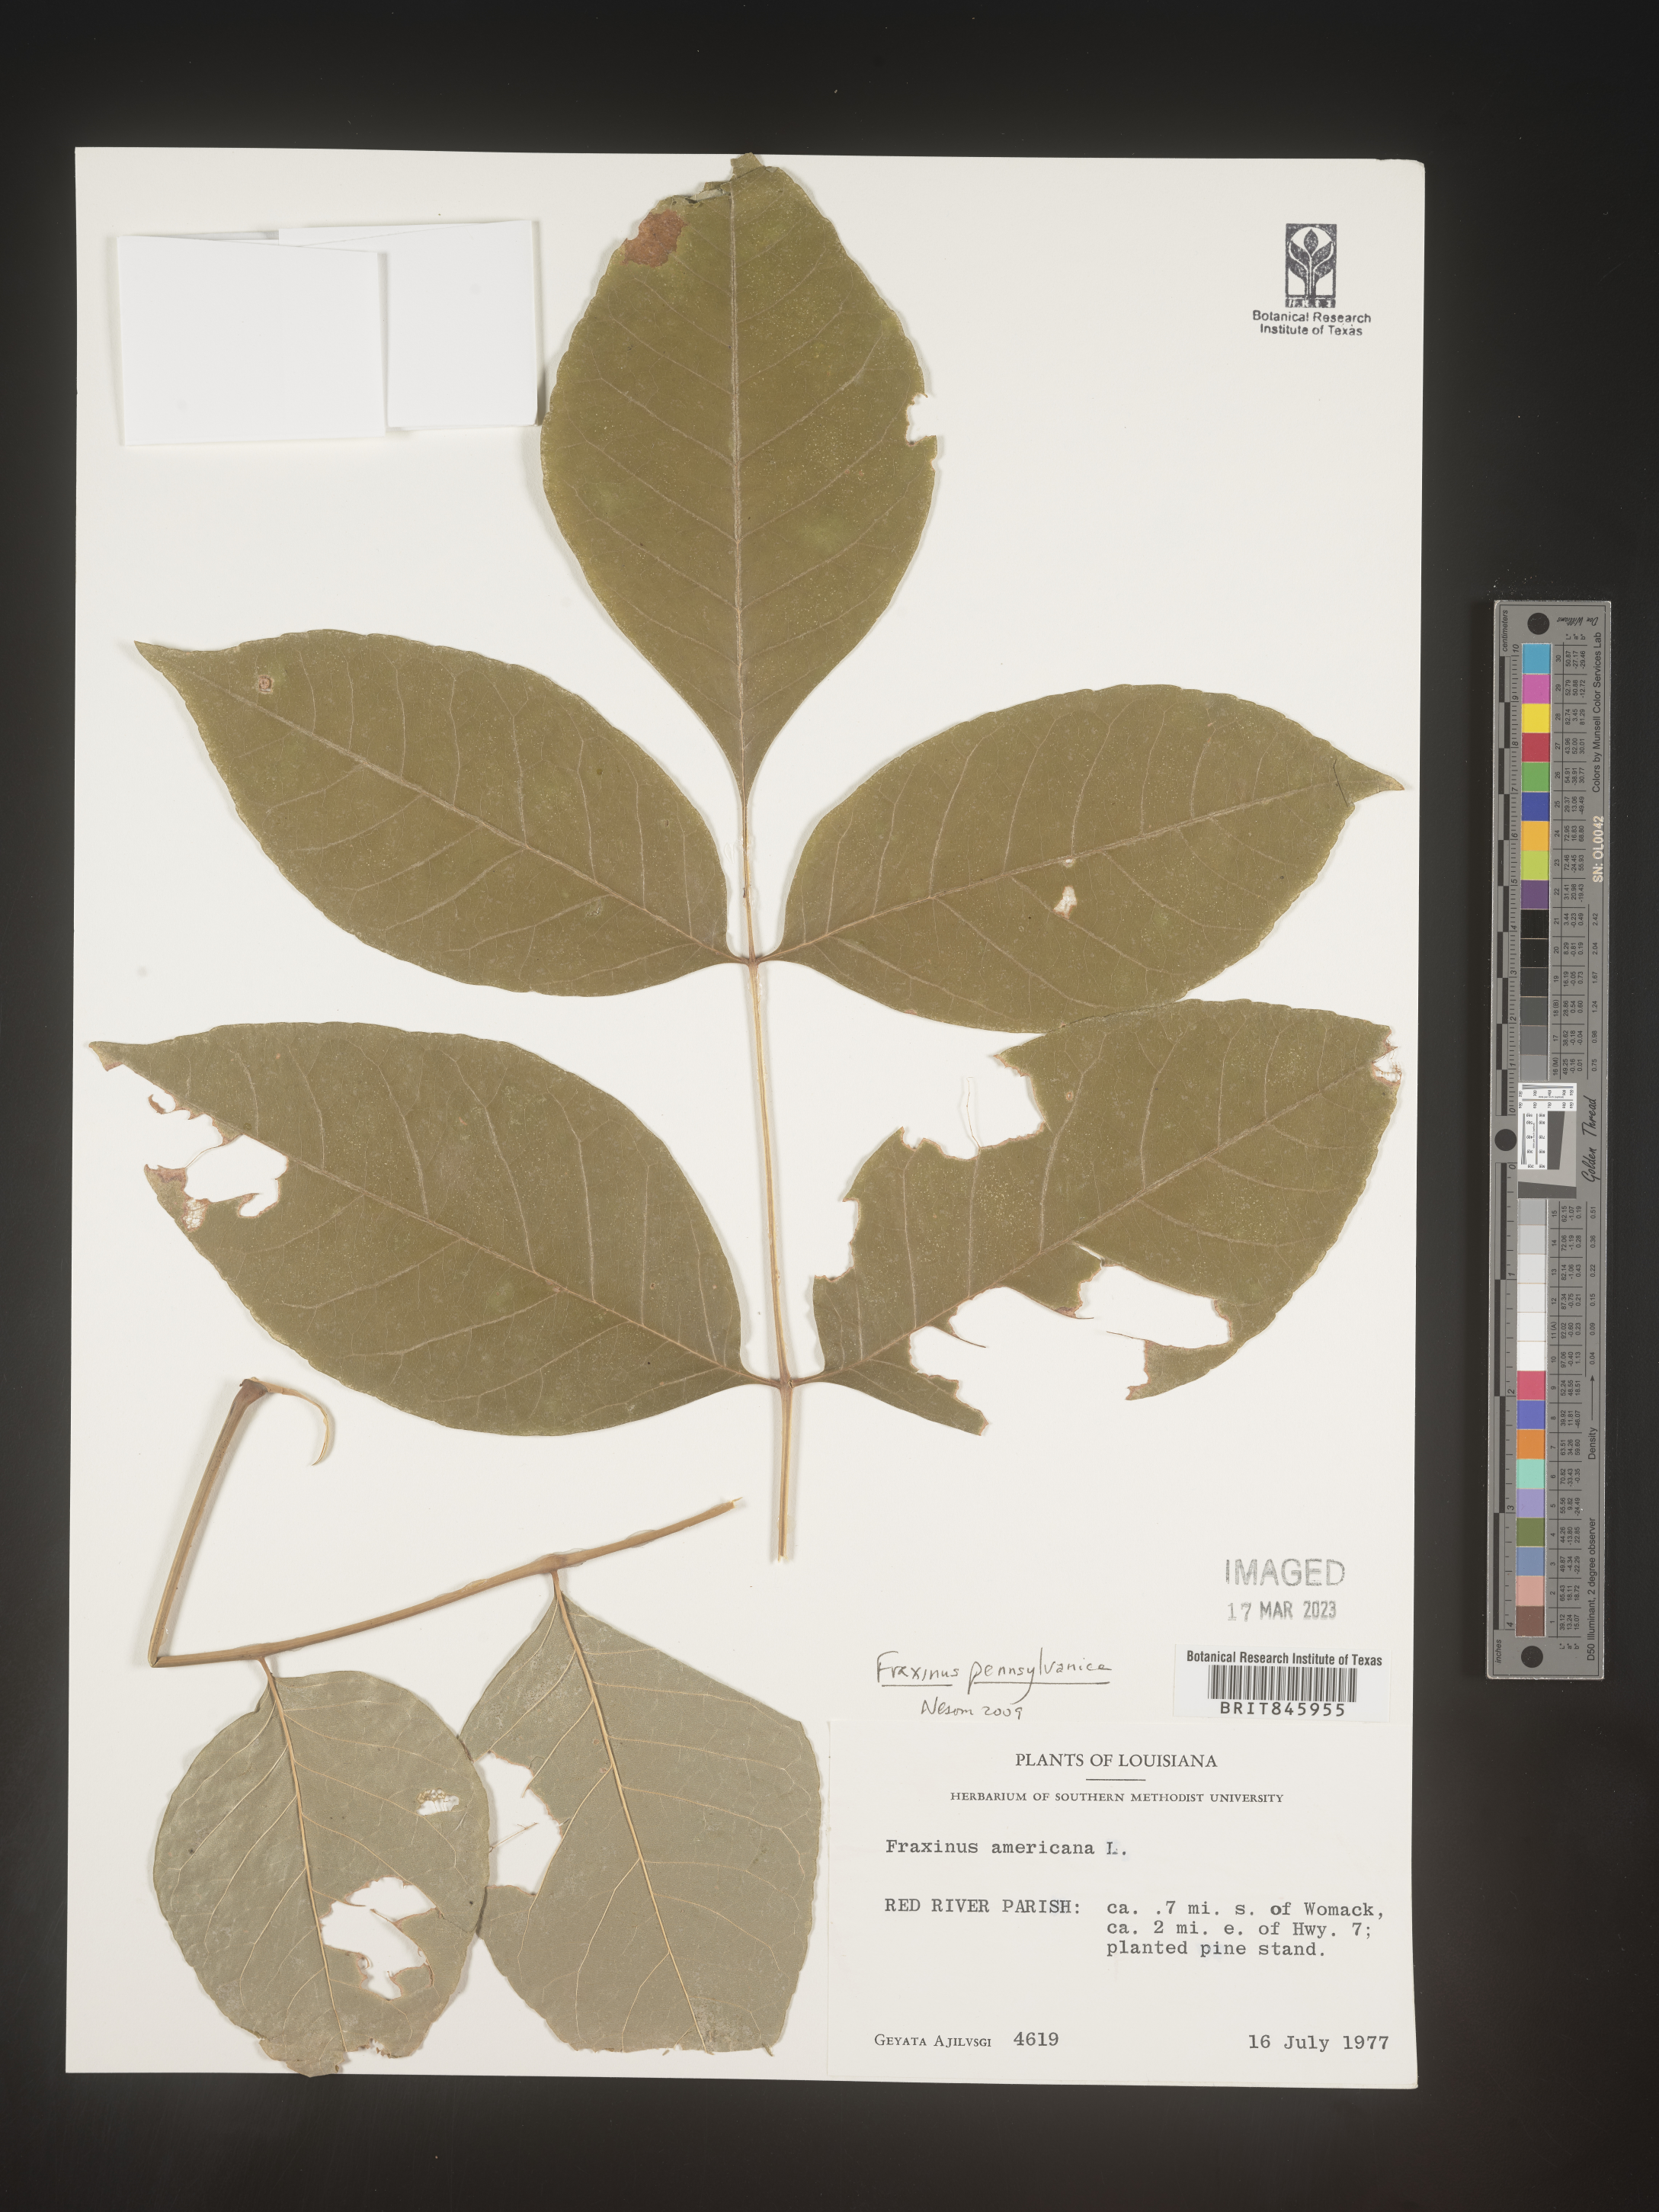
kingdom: Plantae
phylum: Tracheophyta
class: Magnoliopsida
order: Lamiales
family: Oleaceae
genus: Fraxinus
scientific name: Fraxinus
